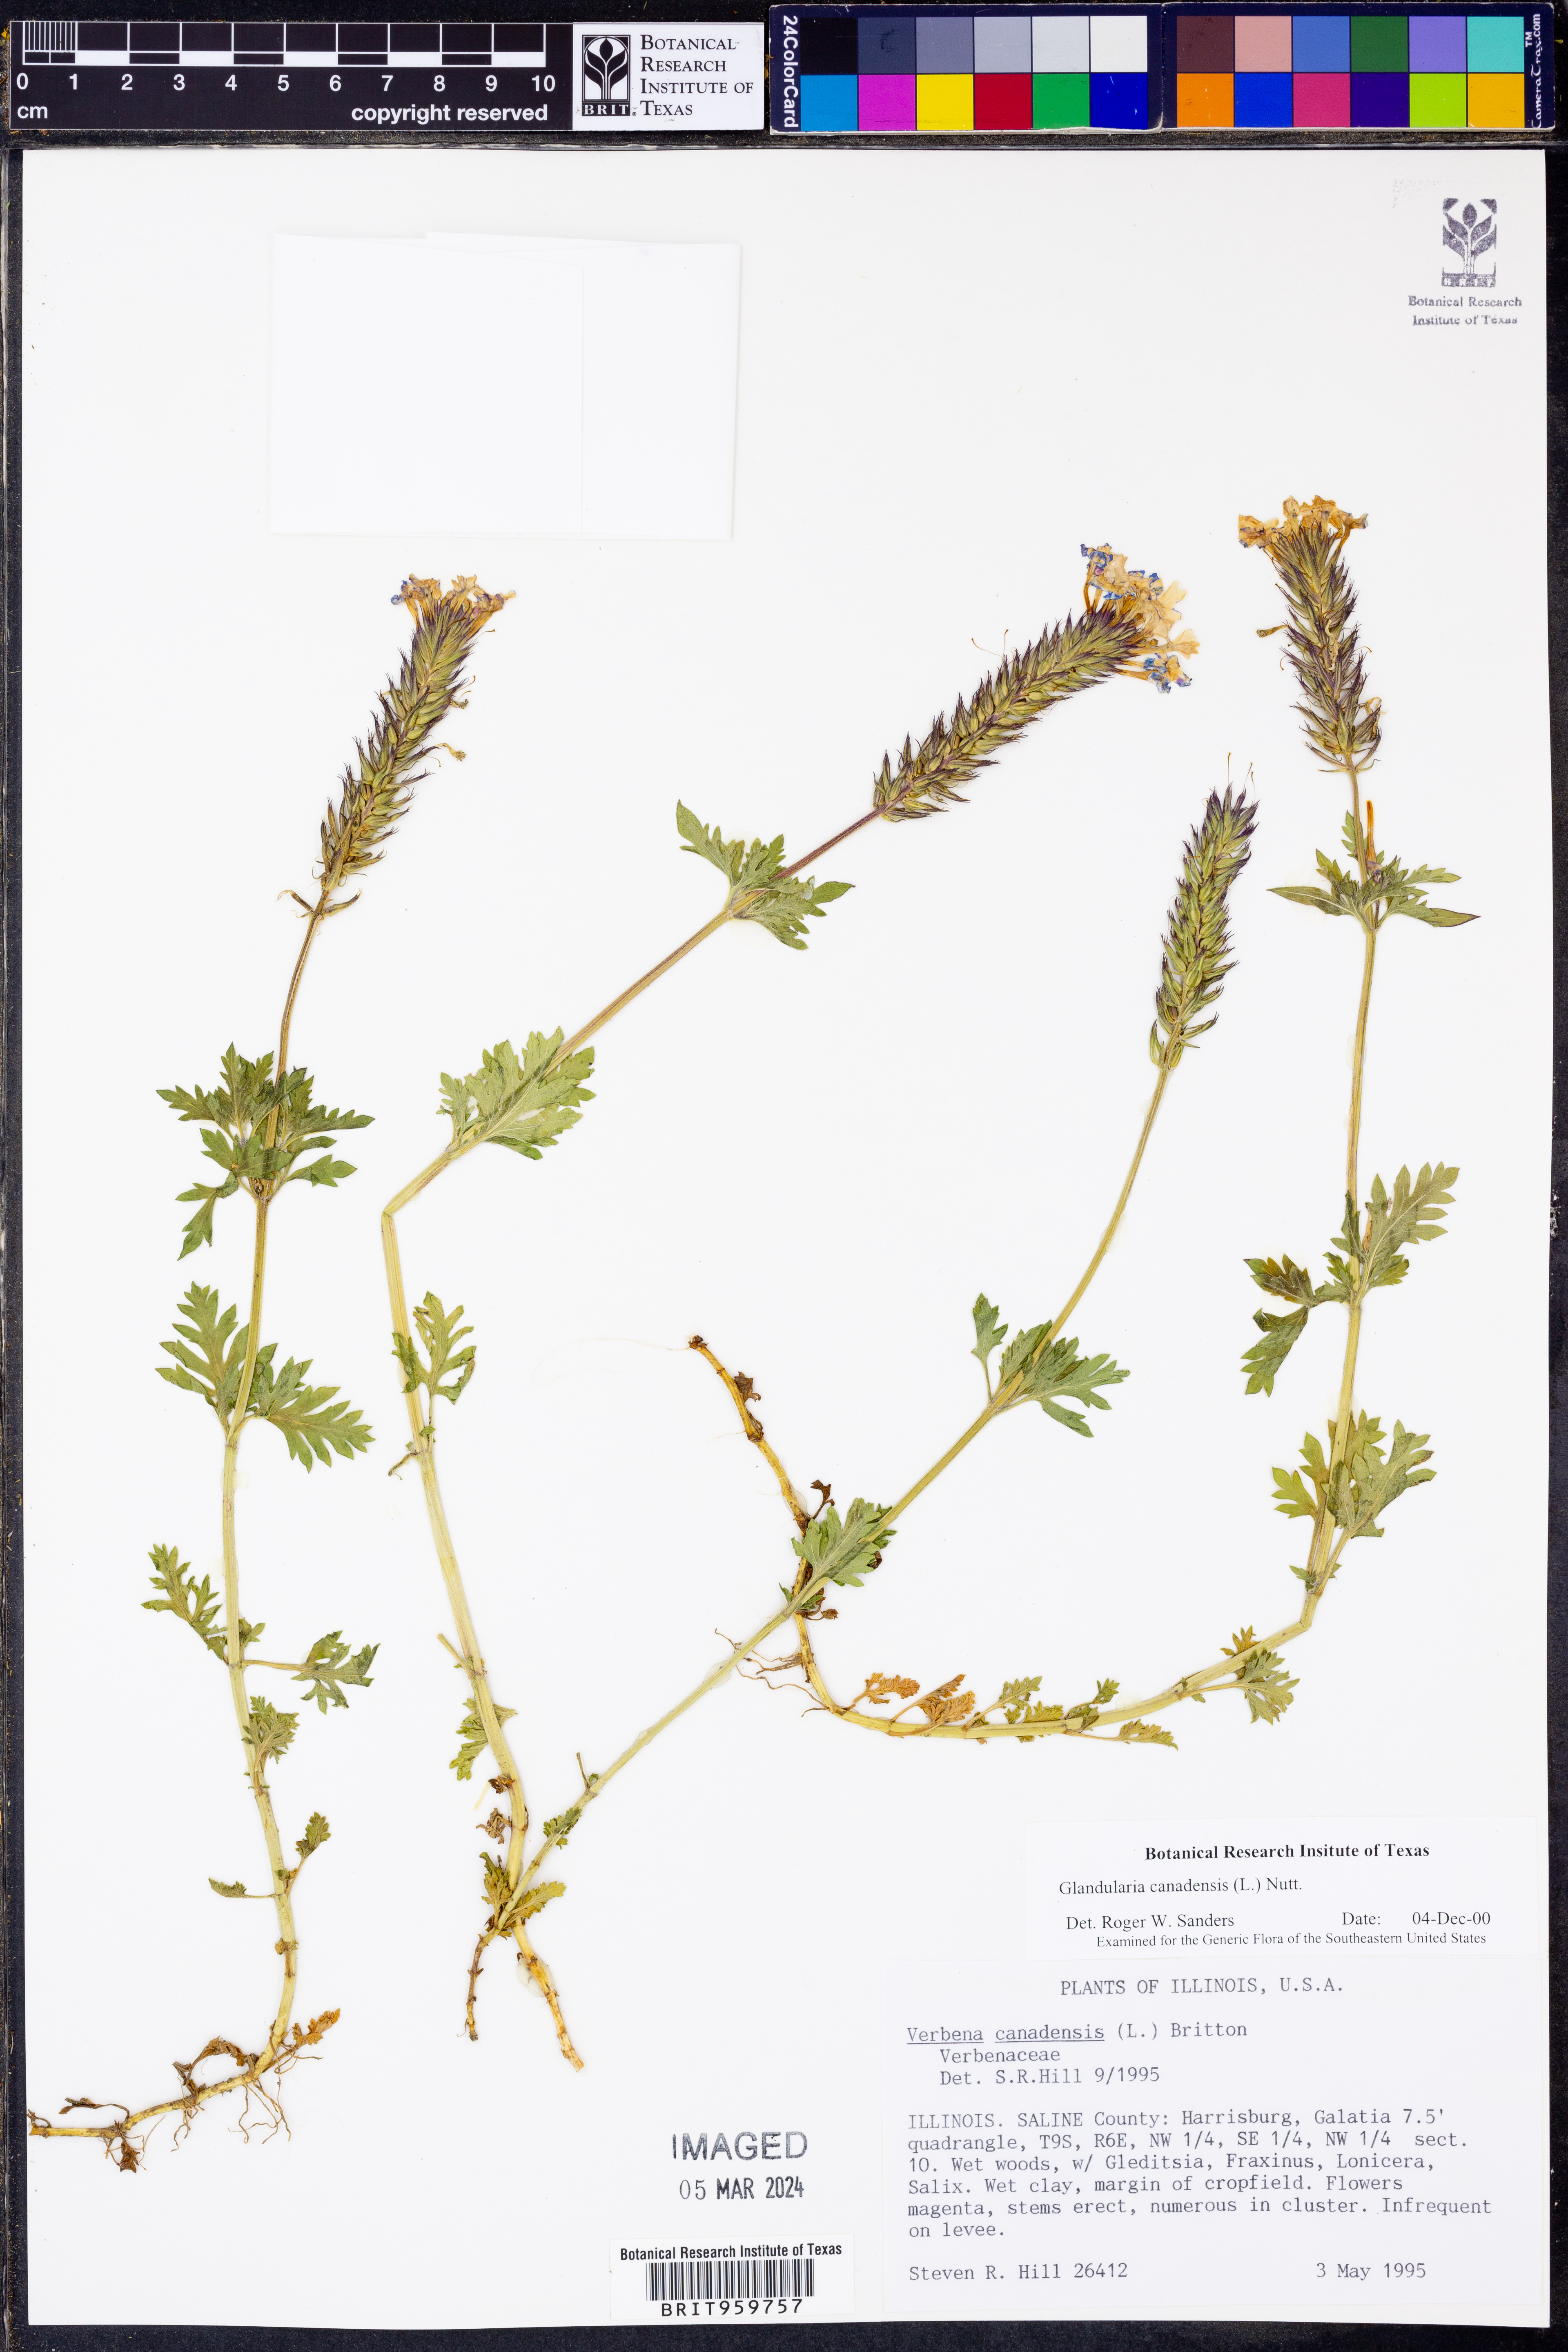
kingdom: Plantae
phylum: Tracheophyta
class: Magnoliopsida
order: Lamiales
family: Verbenaceae
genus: Verbena
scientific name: Verbena canadensis
